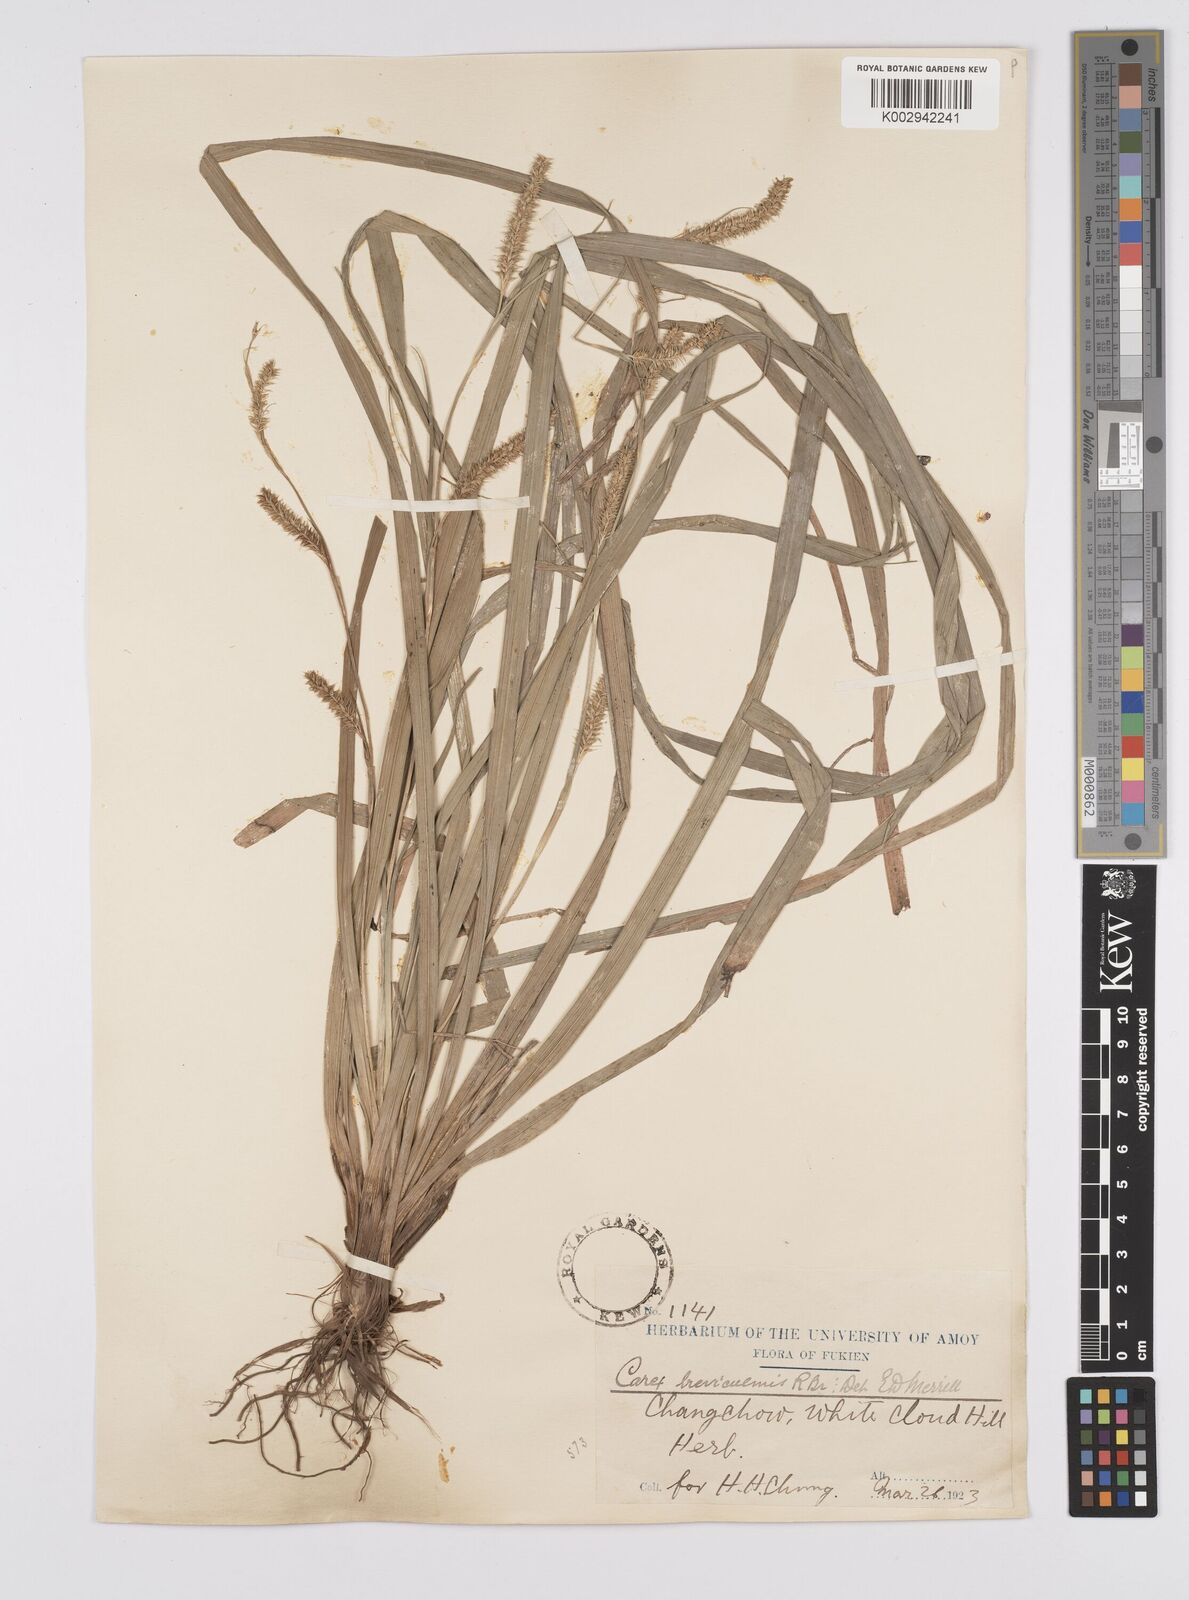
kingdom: Plantae
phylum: Tracheophyta
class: Liliopsida
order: Poales
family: Cyperaceae
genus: Carex
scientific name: Carex morrowii
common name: Japanese sedge
